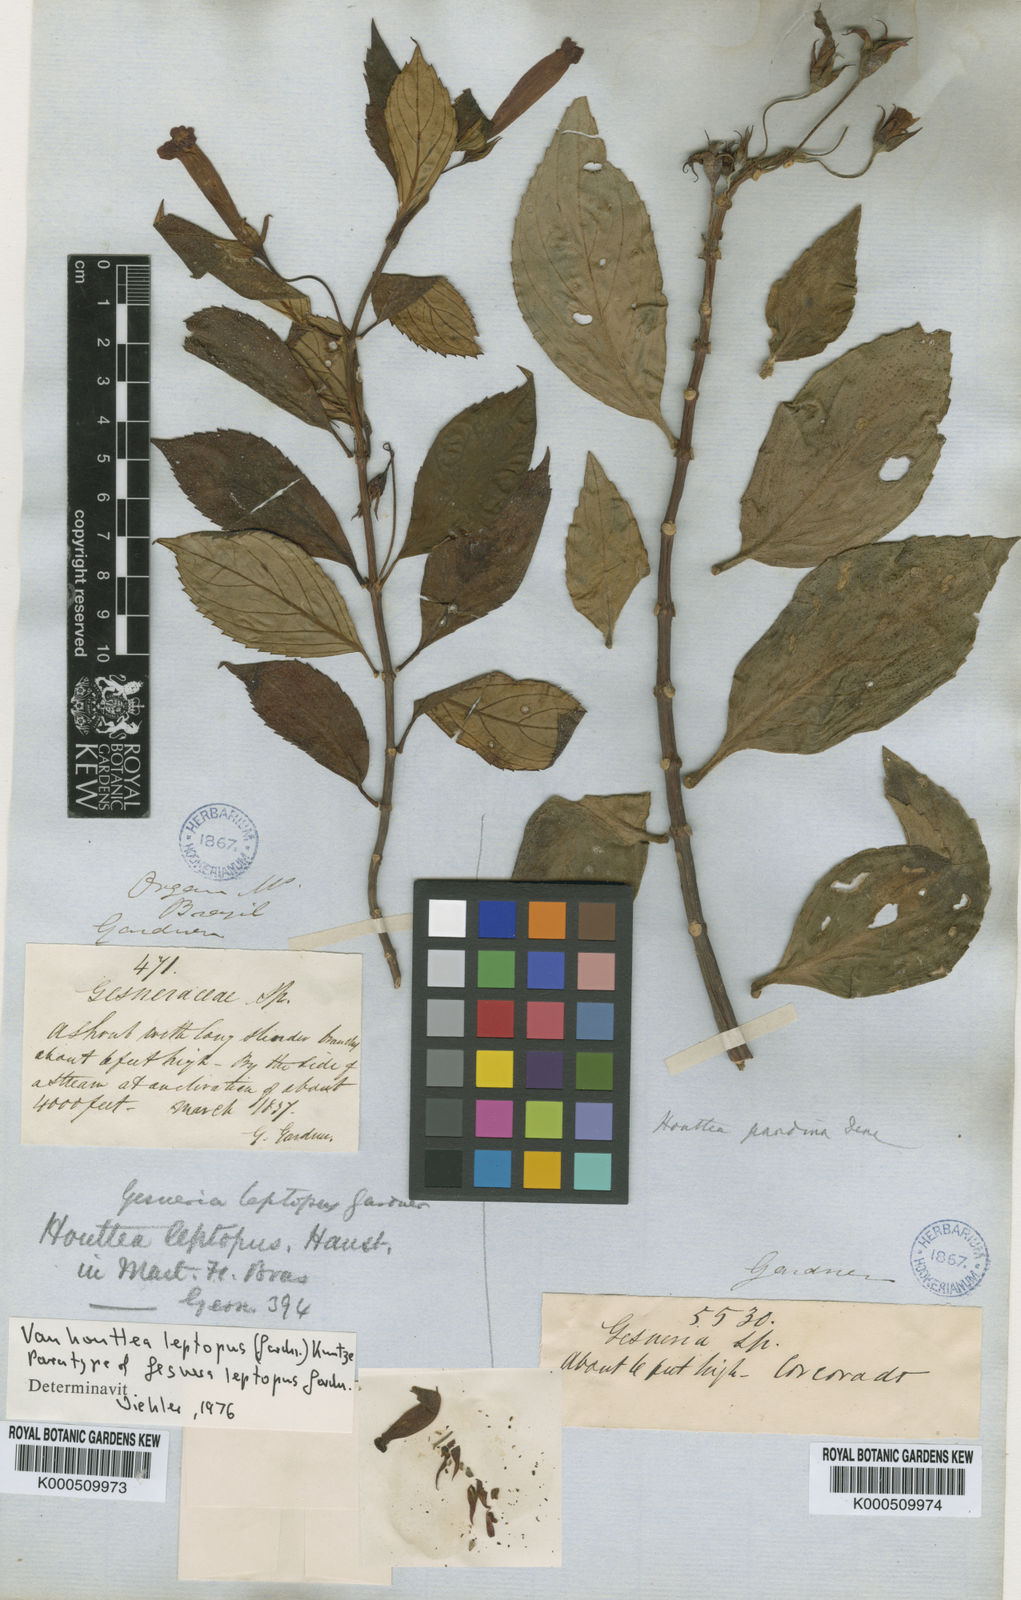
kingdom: Plantae
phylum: Tracheophyta
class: Magnoliopsida
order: Lamiales
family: Gesneriaceae
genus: Vanhouttea
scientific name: Vanhouttea gardneri
